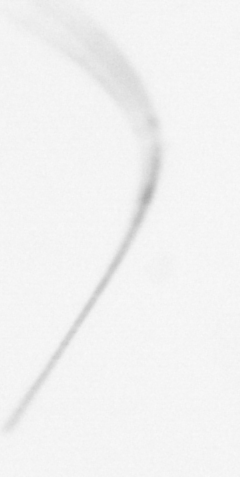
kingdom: Chromista
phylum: Ochrophyta
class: Bacillariophyceae
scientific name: Bacillariophyceae
